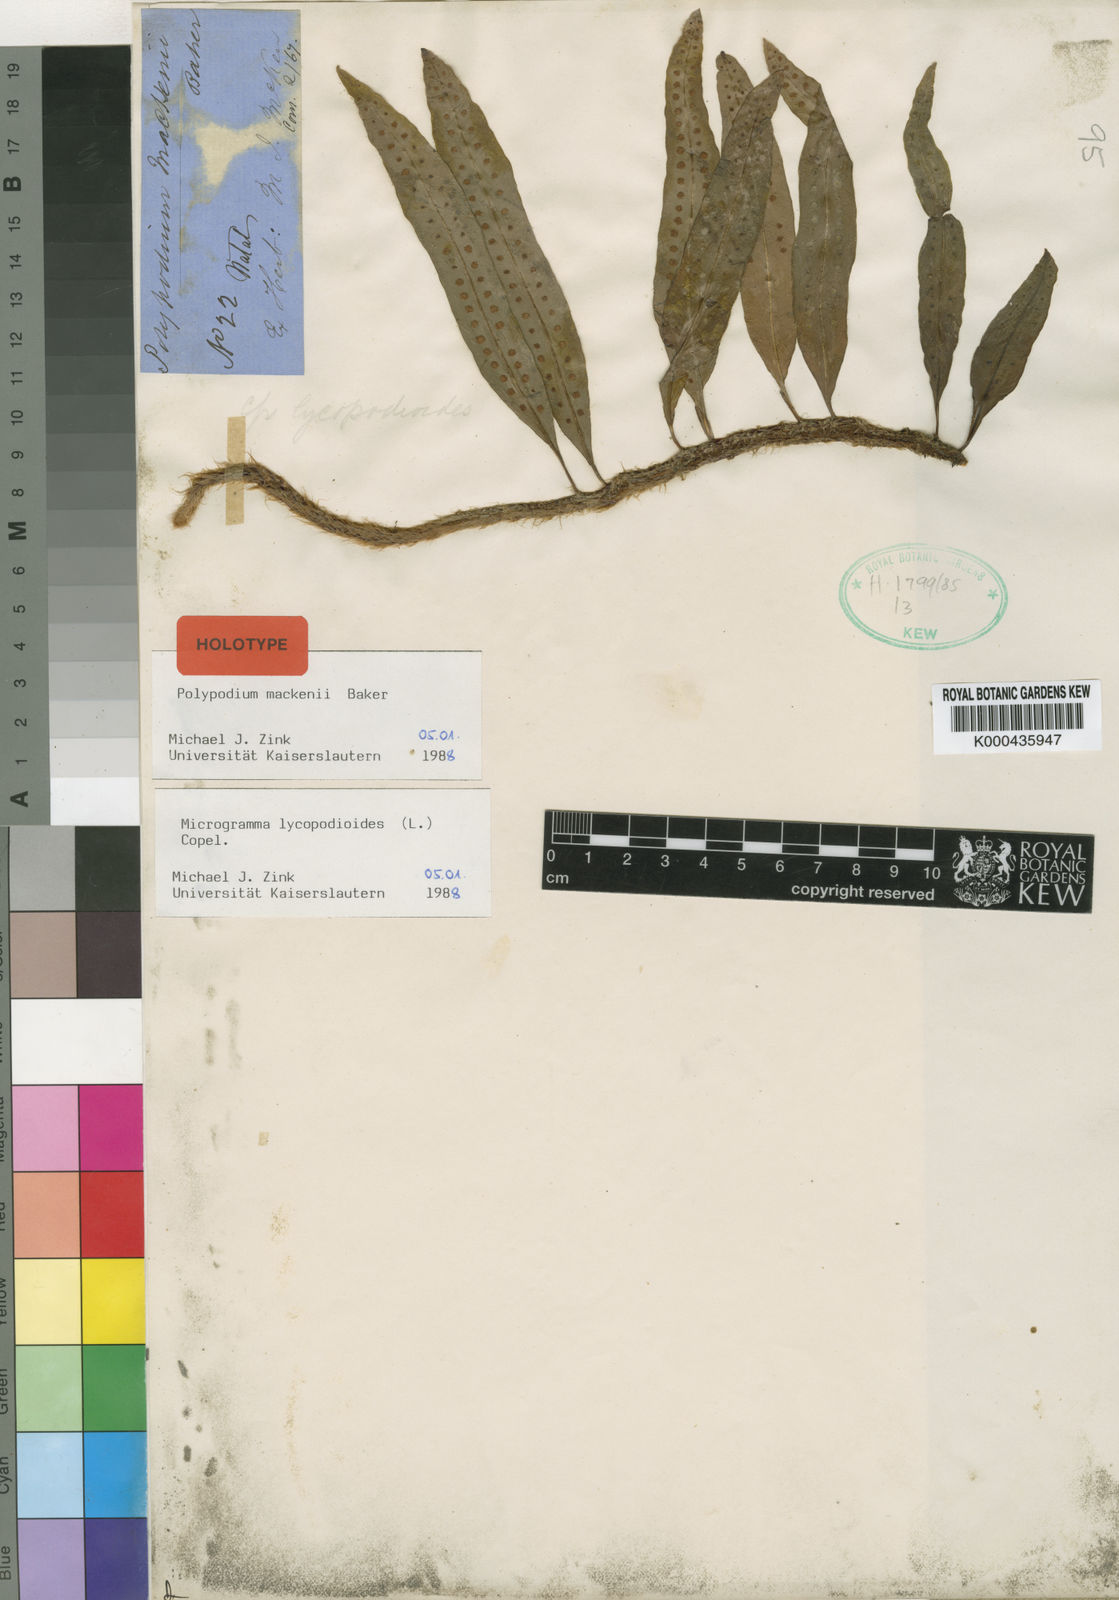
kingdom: Plantae
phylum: Tracheophyta
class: Polypodiopsida
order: Polypodiales
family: Polypodiaceae
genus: Microgramma
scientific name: Microgramma
